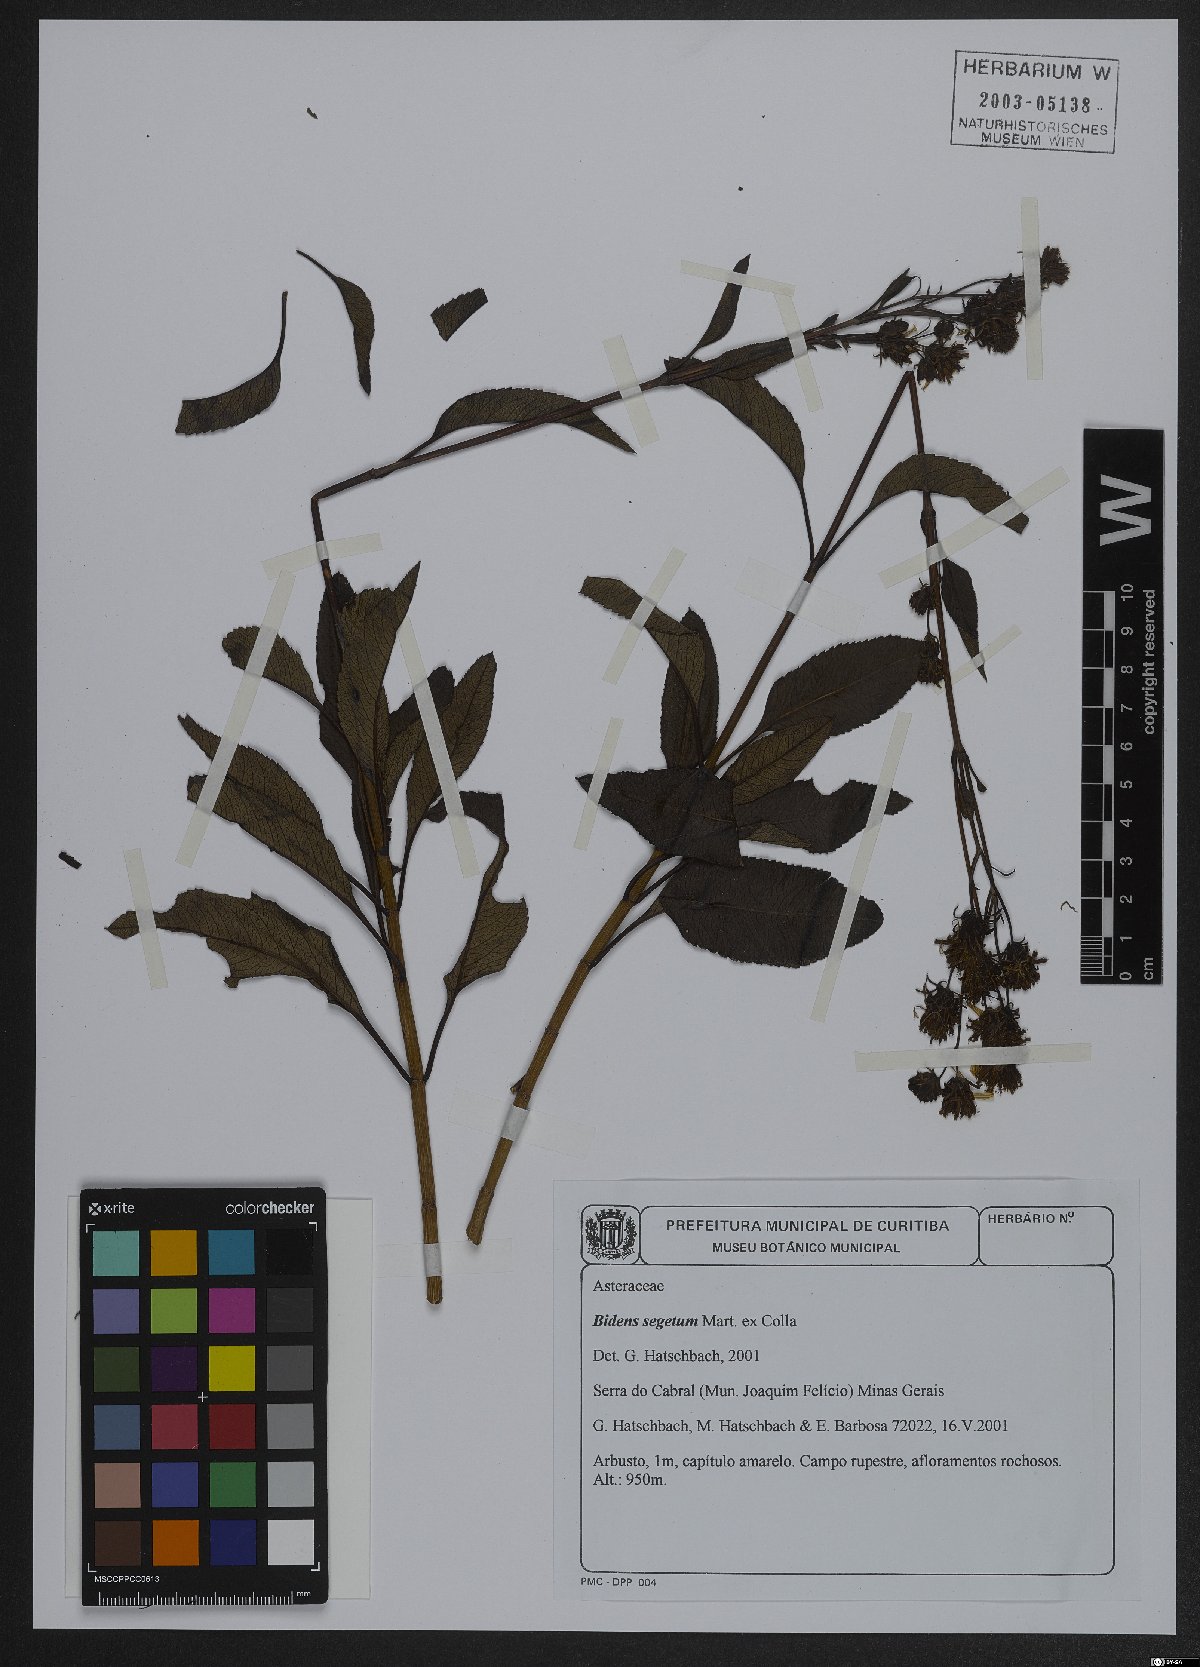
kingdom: Plantae
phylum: Tracheophyta
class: Magnoliopsida
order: Asterales
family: Asteraceae
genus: Bidens
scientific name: Bidens segetum
